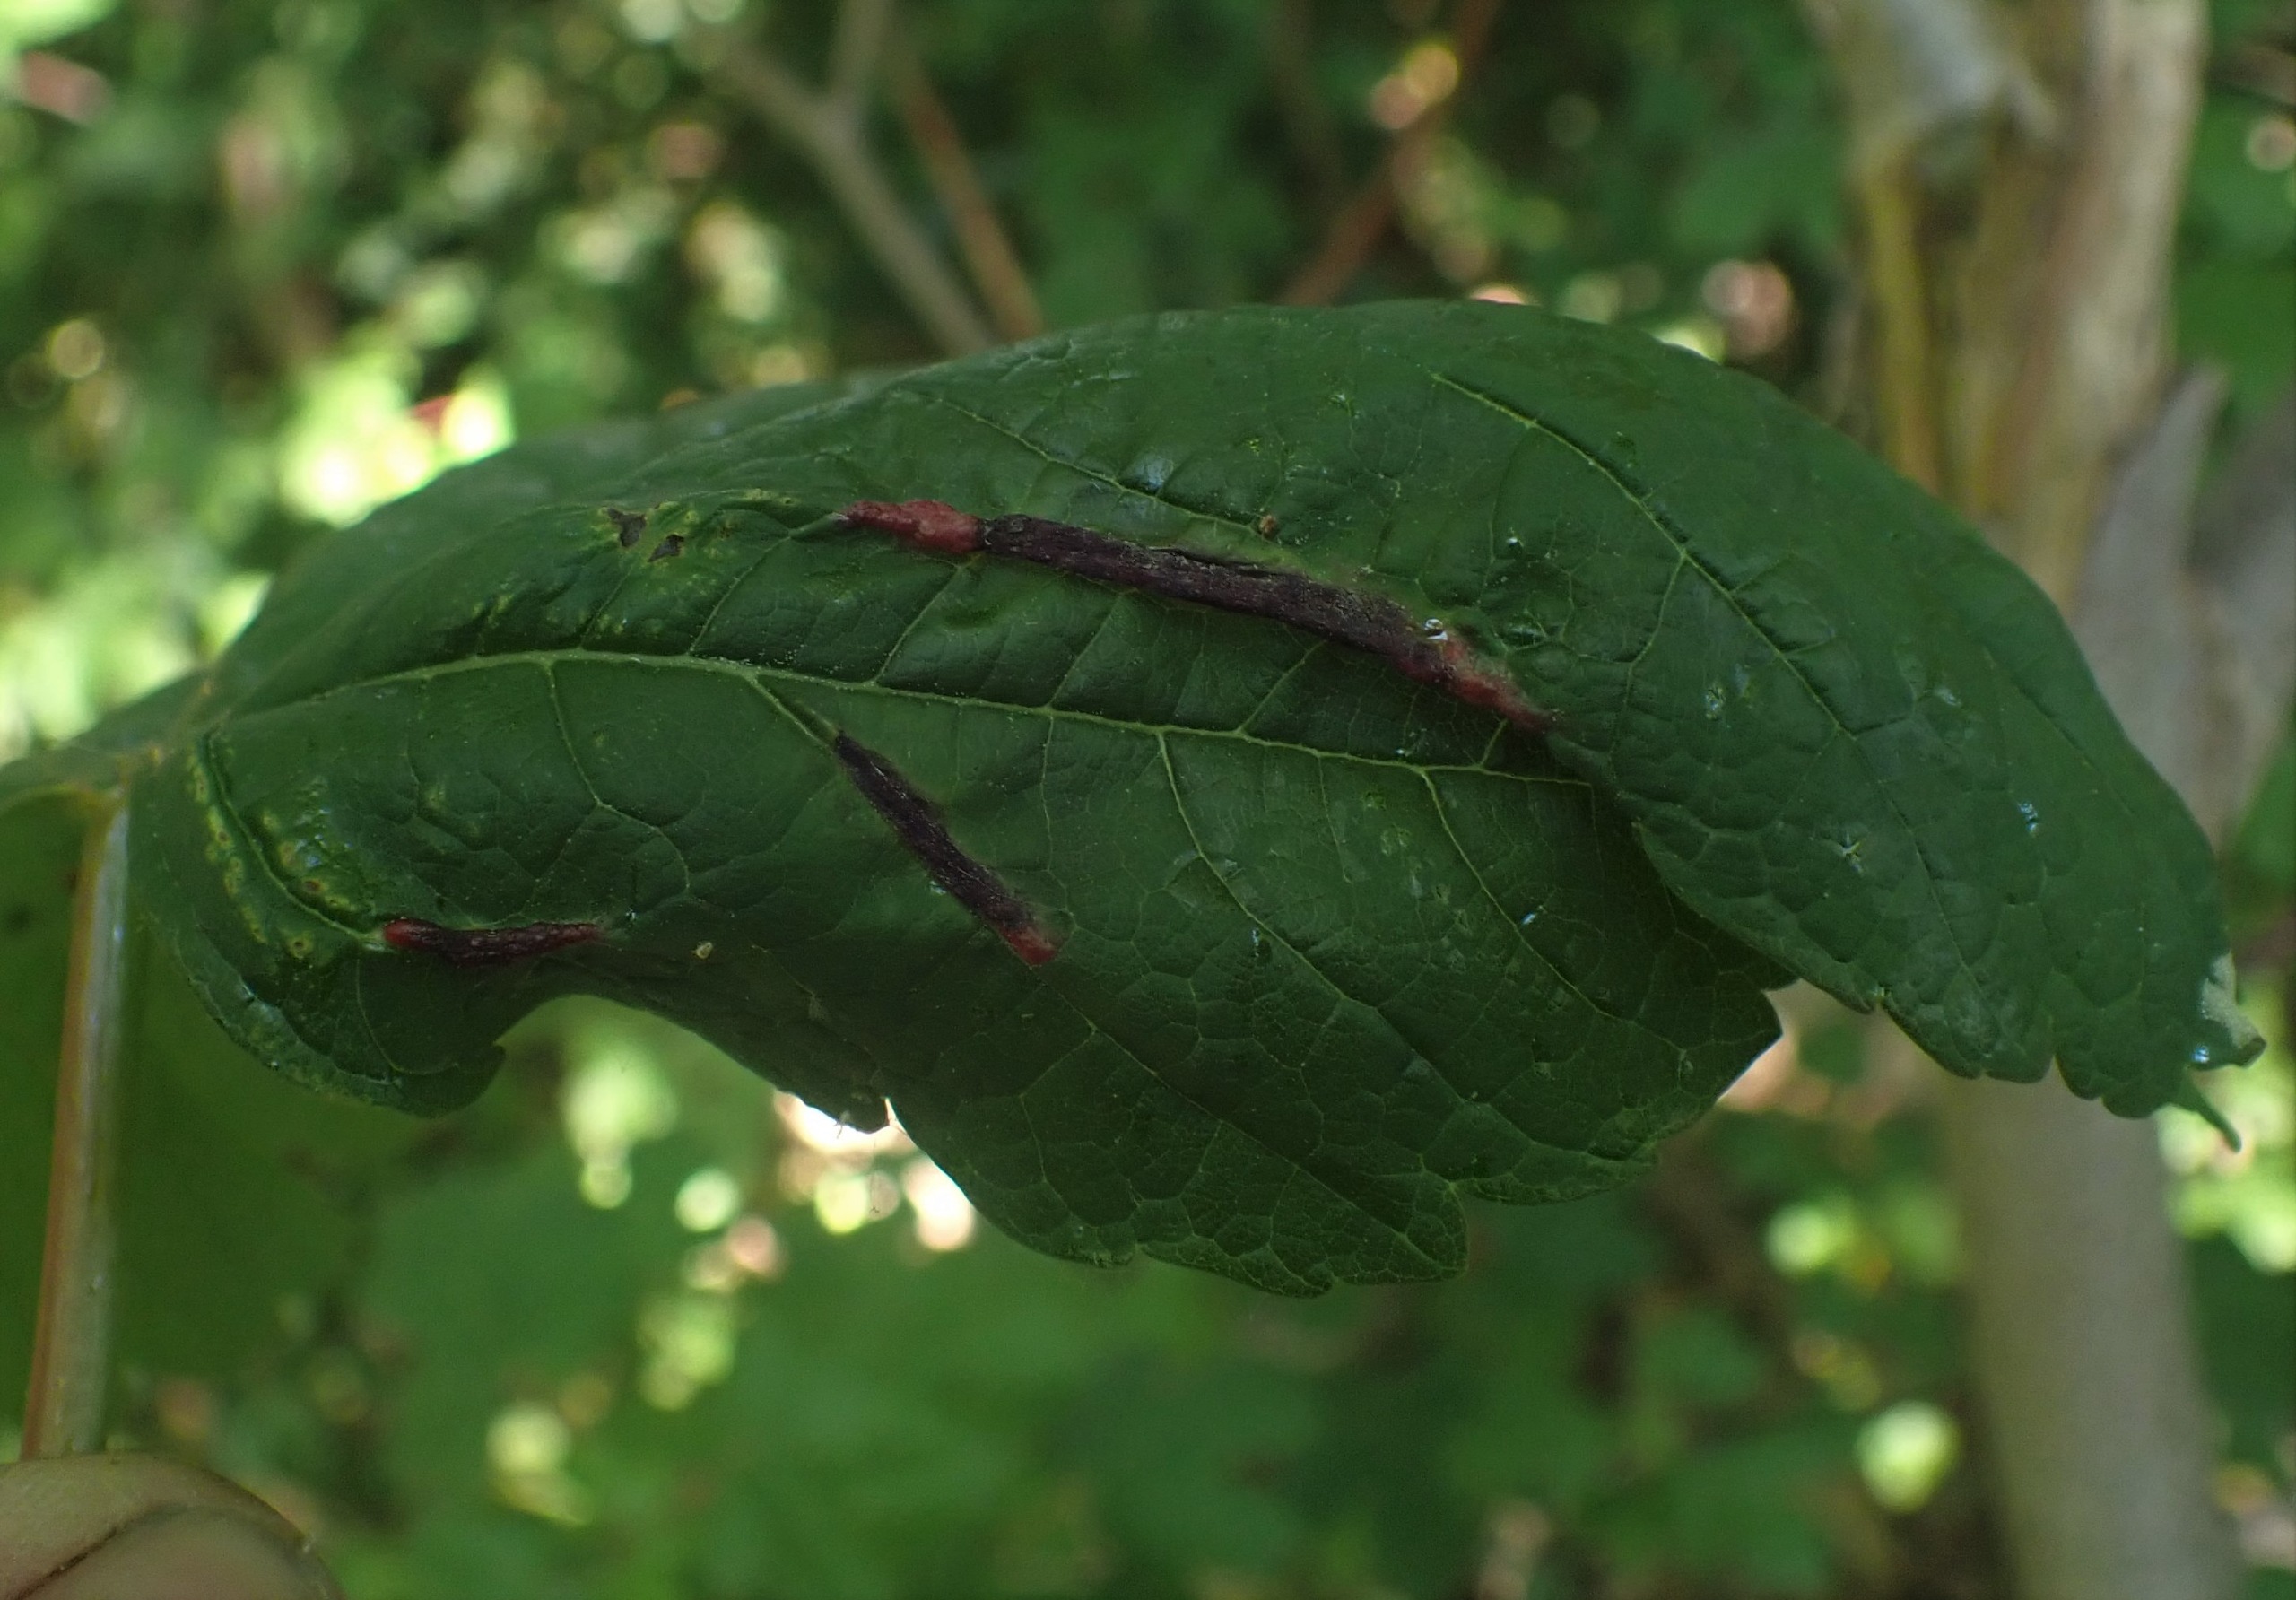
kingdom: Animalia
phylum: Arthropoda
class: Insecta
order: Diptera
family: Cecidomyiidae
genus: Contarinia
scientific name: Contarinia acerplicans
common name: Ahornvulstgalmyg
